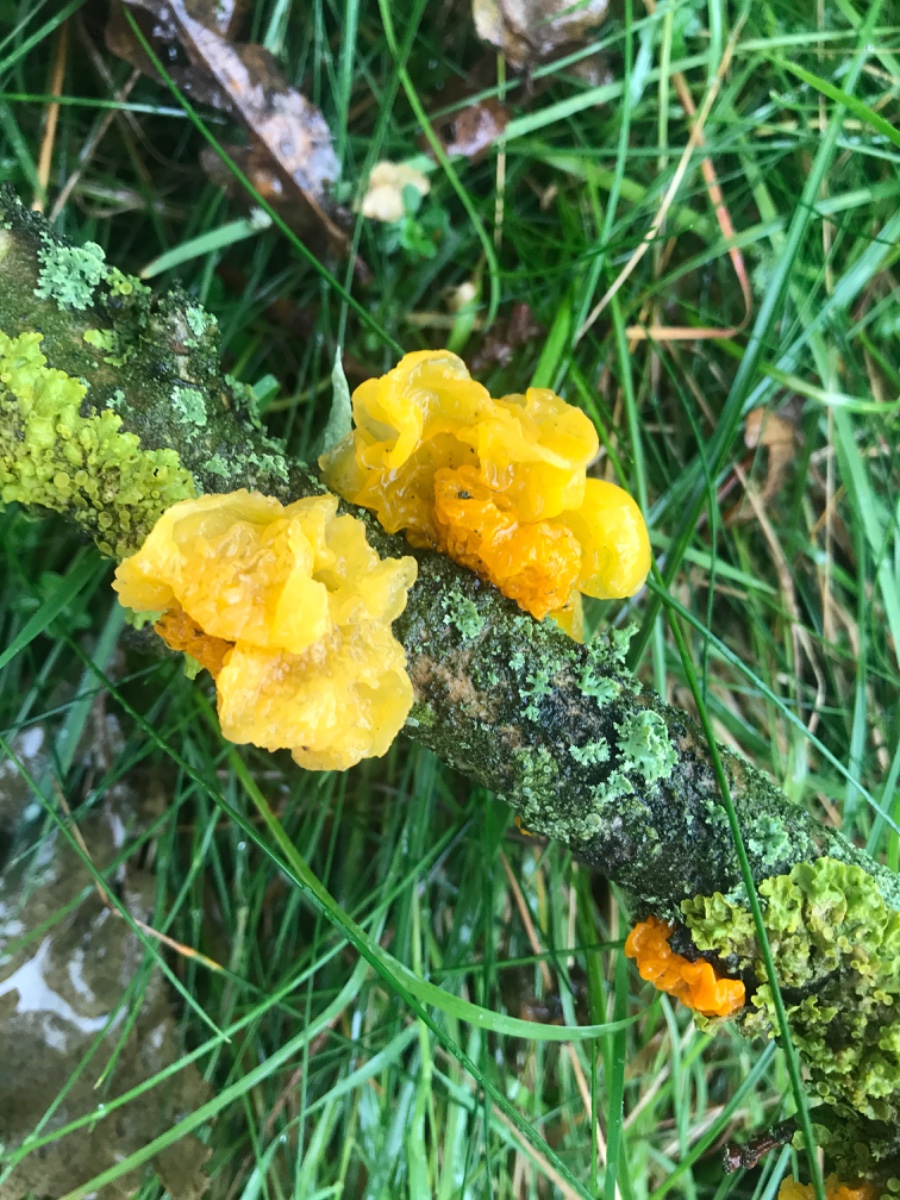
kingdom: Fungi
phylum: Basidiomycota
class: Tremellomycetes
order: Tremellales
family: Tremellaceae
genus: Tremella
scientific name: Tremella mesenterica
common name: gul bævresvamp
